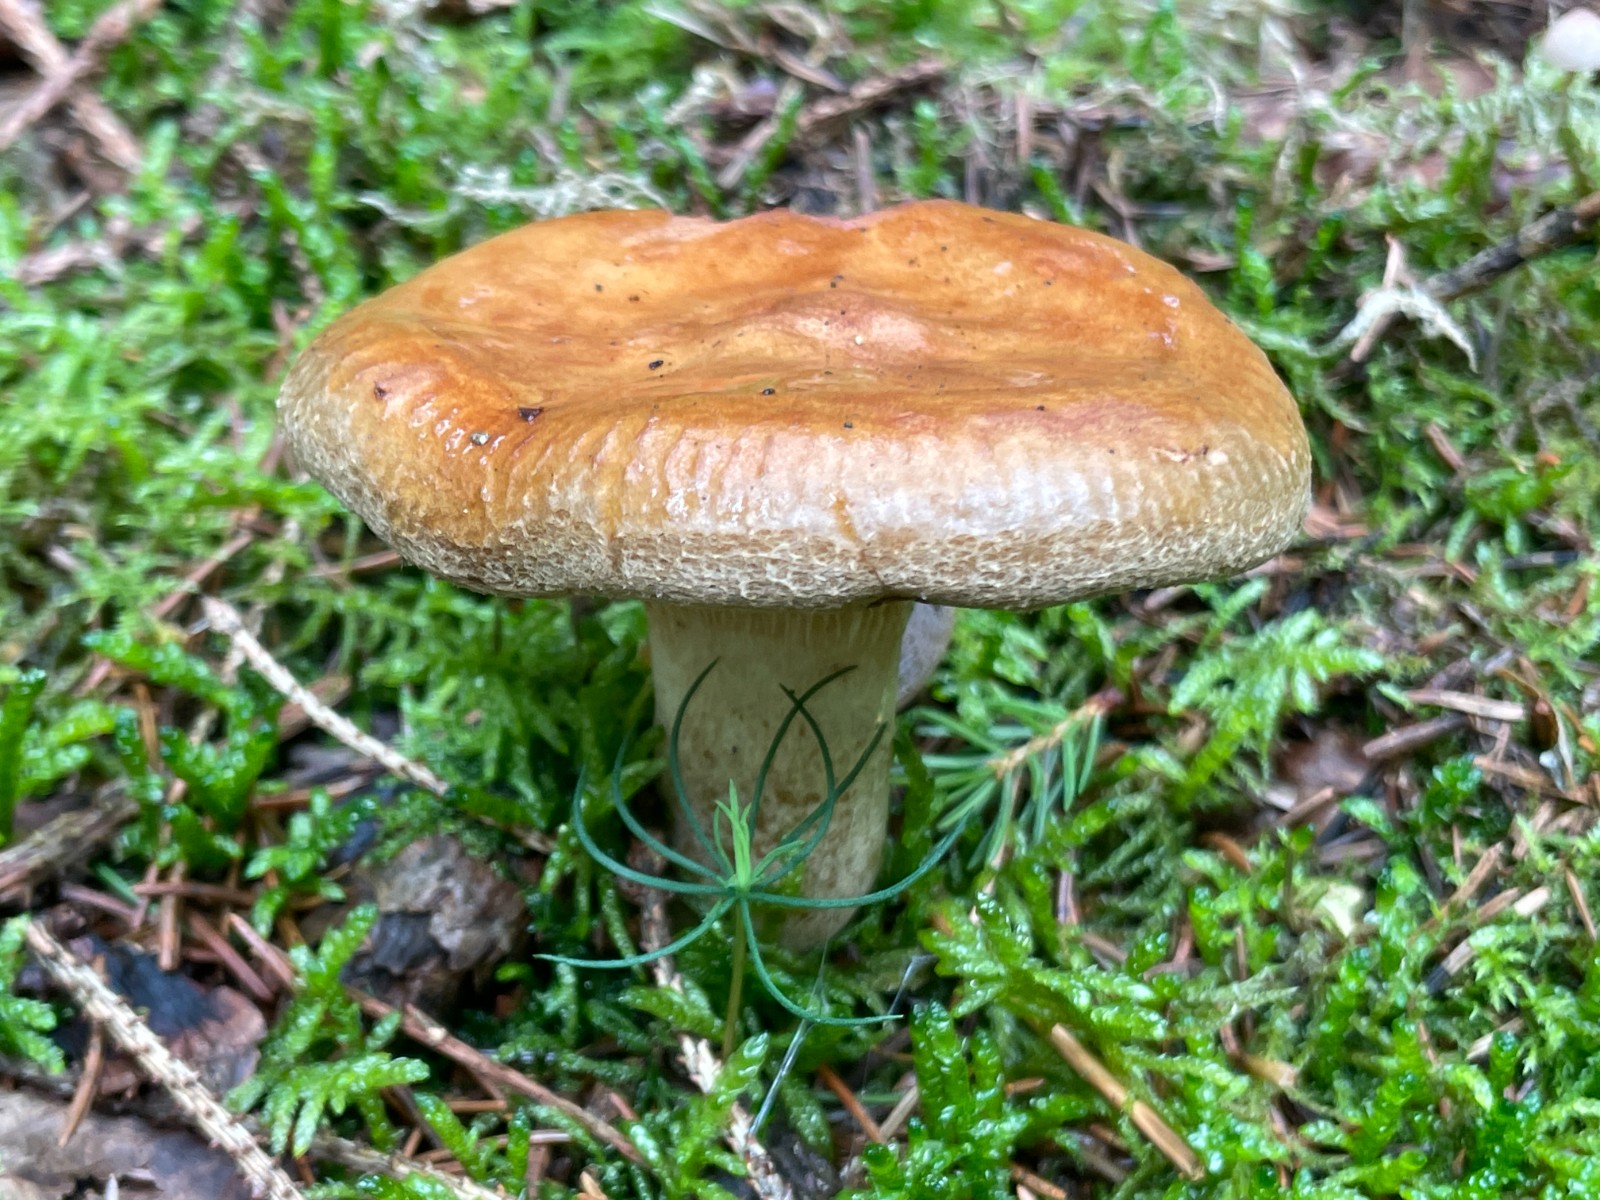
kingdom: Fungi
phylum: Basidiomycota
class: Agaricomycetes
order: Boletales
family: Paxillaceae
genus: Paxillus
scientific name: Paxillus involutus
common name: almindelig netbladhat
